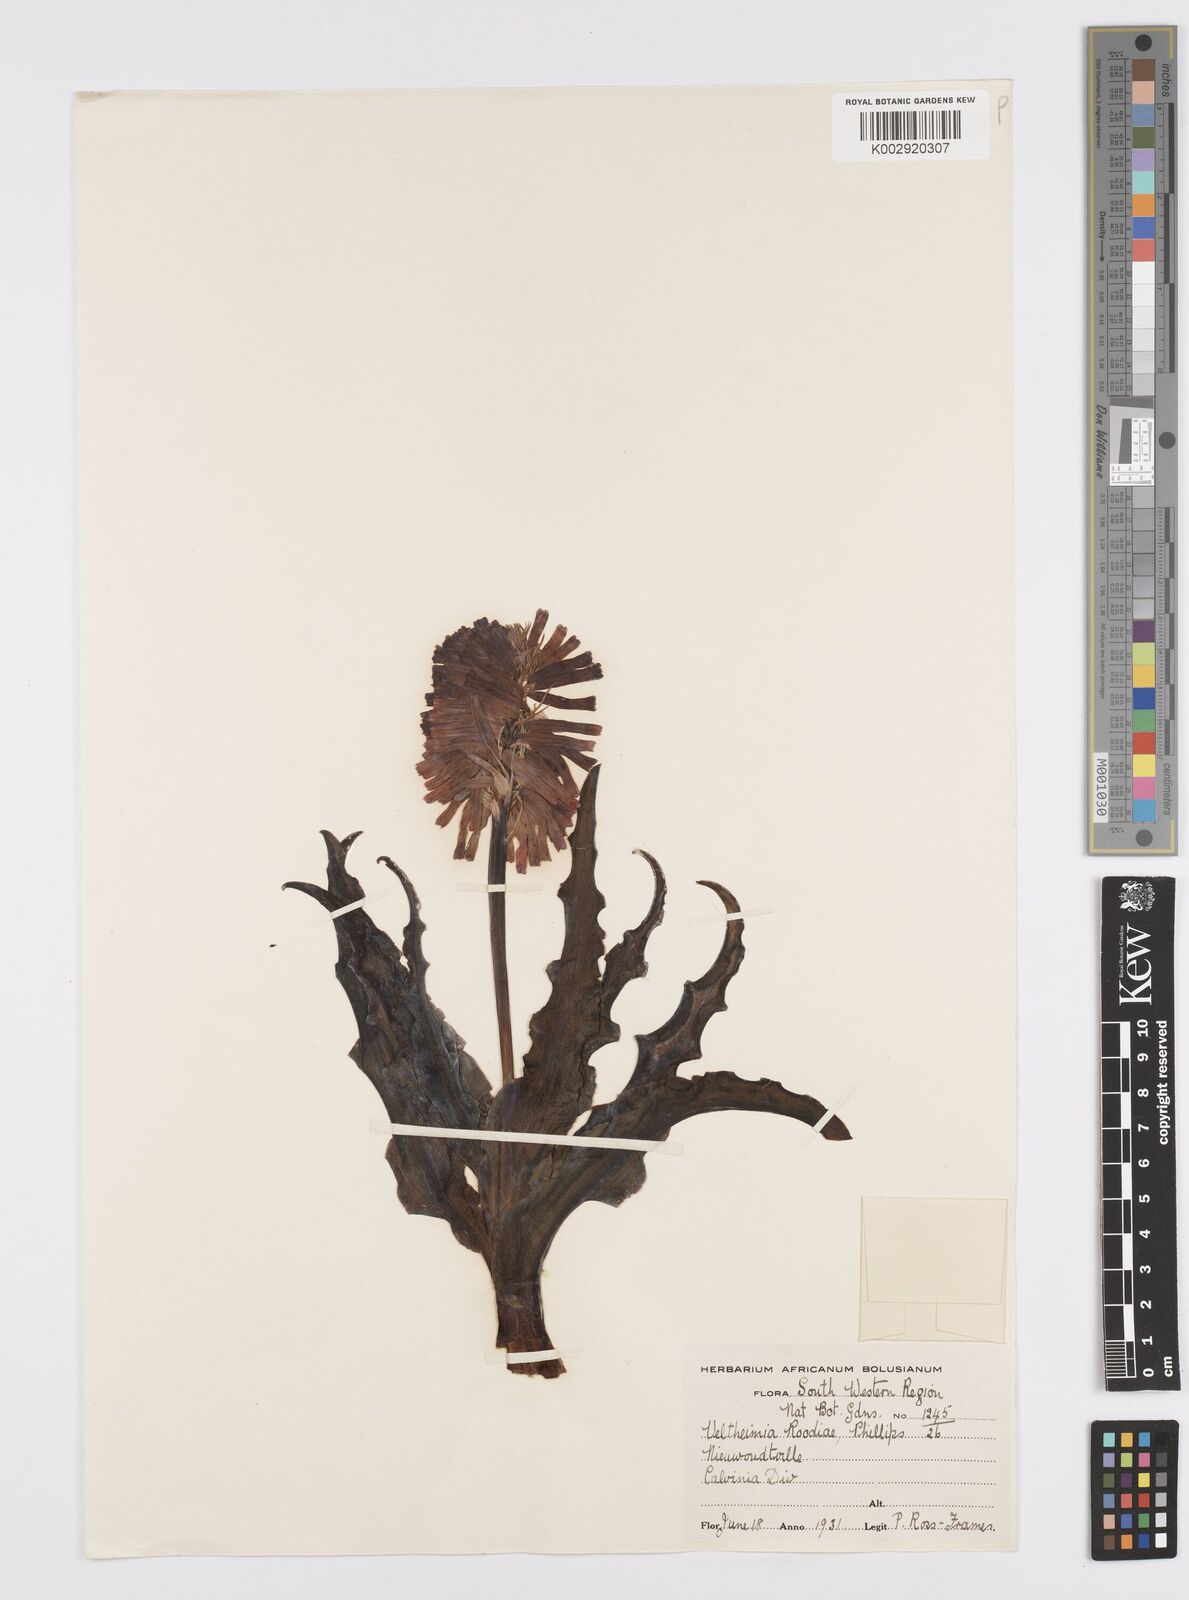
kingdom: Plantae
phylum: Tracheophyta
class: Liliopsida
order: Asparagales
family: Asparagaceae
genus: Veltheimia
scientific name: Veltheimia capensis
